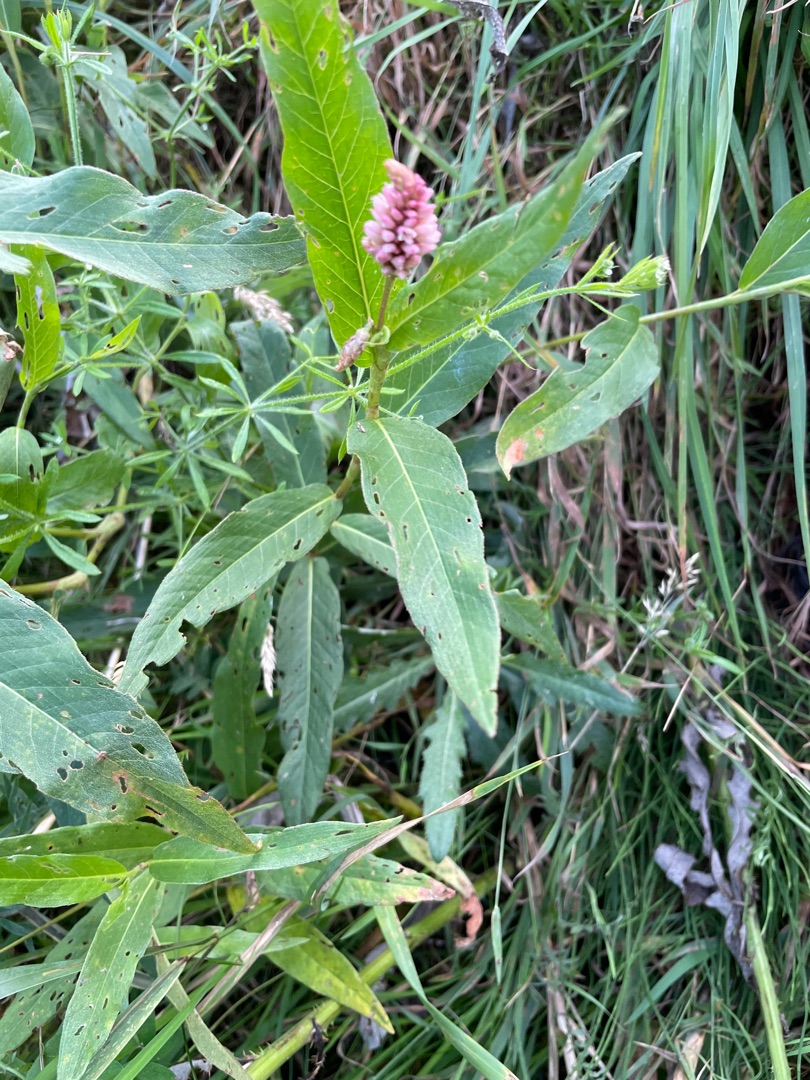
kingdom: Plantae
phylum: Tracheophyta
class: Magnoliopsida
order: Caryophyllales
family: Polygonaceae
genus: Persicaria
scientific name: Persicaria amphibia
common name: Vand-pileurt
